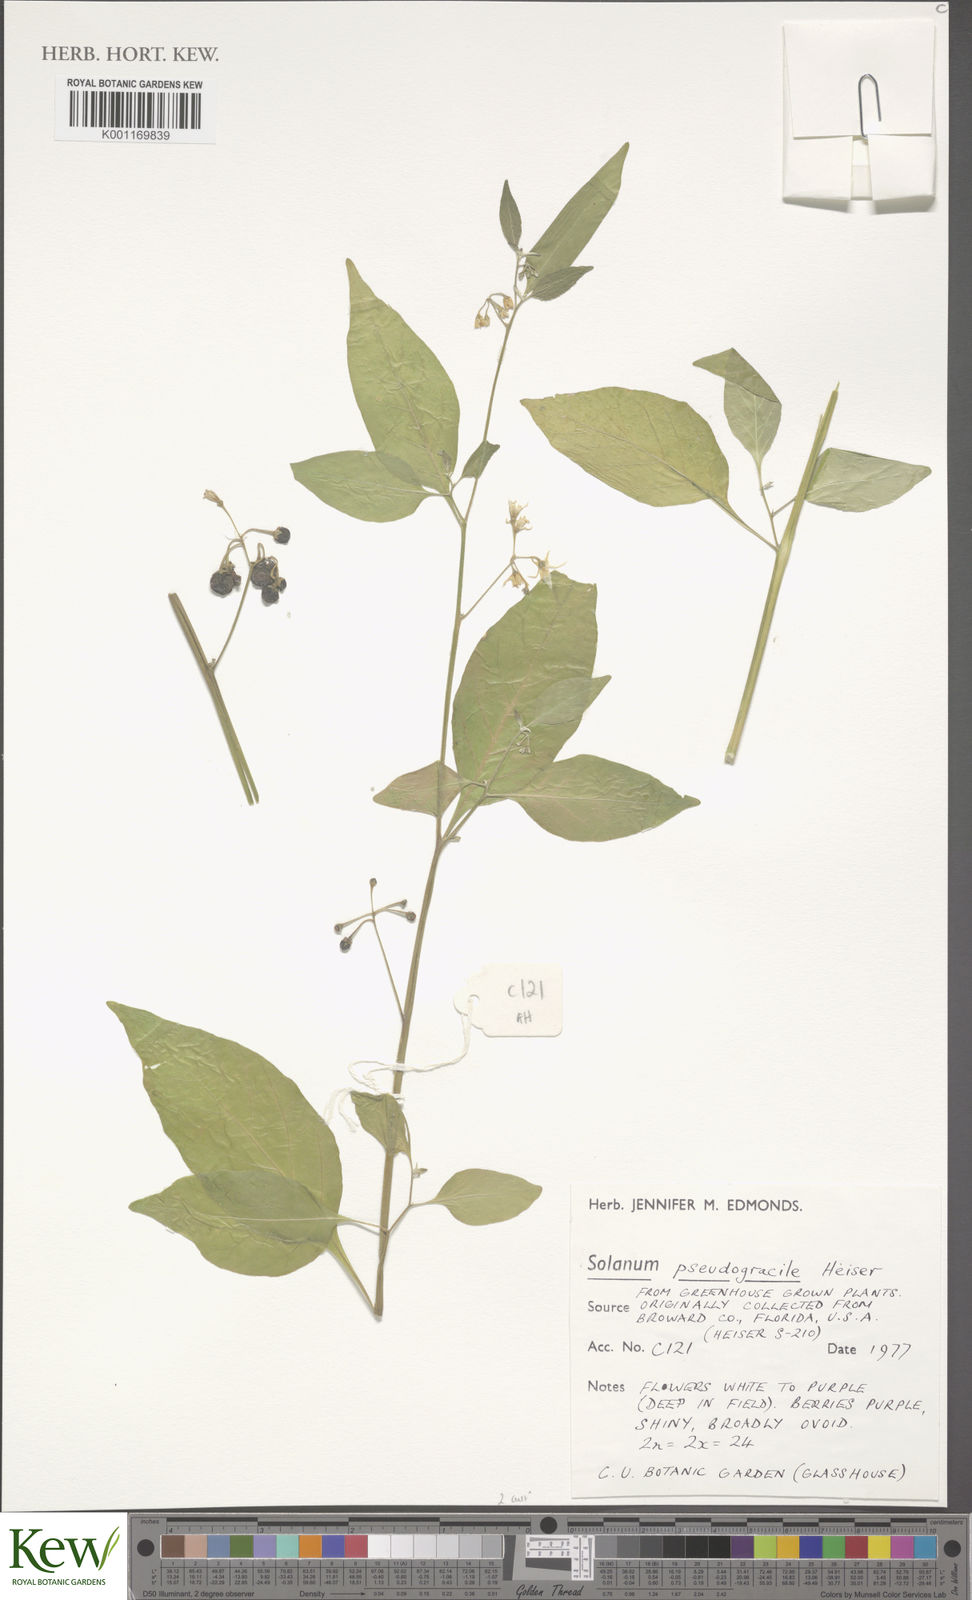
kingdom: Plantae
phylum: Tracheophyta
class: Magnoliopsida
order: Solanales
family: Solanaceae
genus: Solanum
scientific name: Solanum pseudogracile
